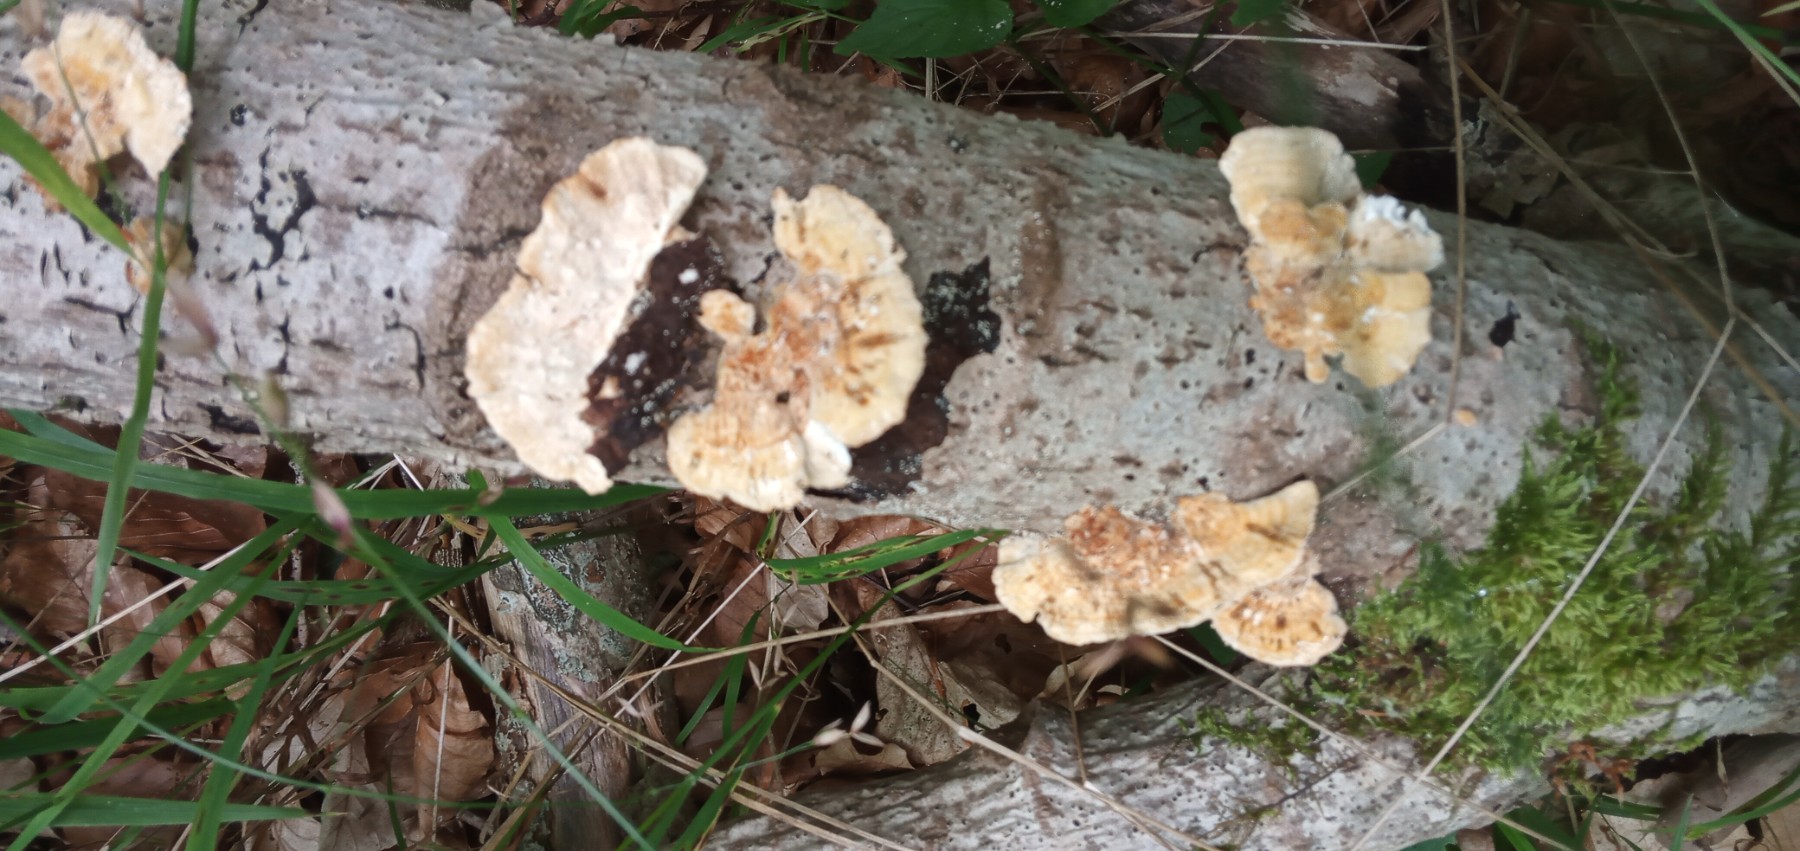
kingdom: Fungi
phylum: Basidiomycota
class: Agaricomycetes
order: Russulales
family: Stereaceae
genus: Stereum
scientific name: Stereum subtomentosum
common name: smuk lædersvamp
